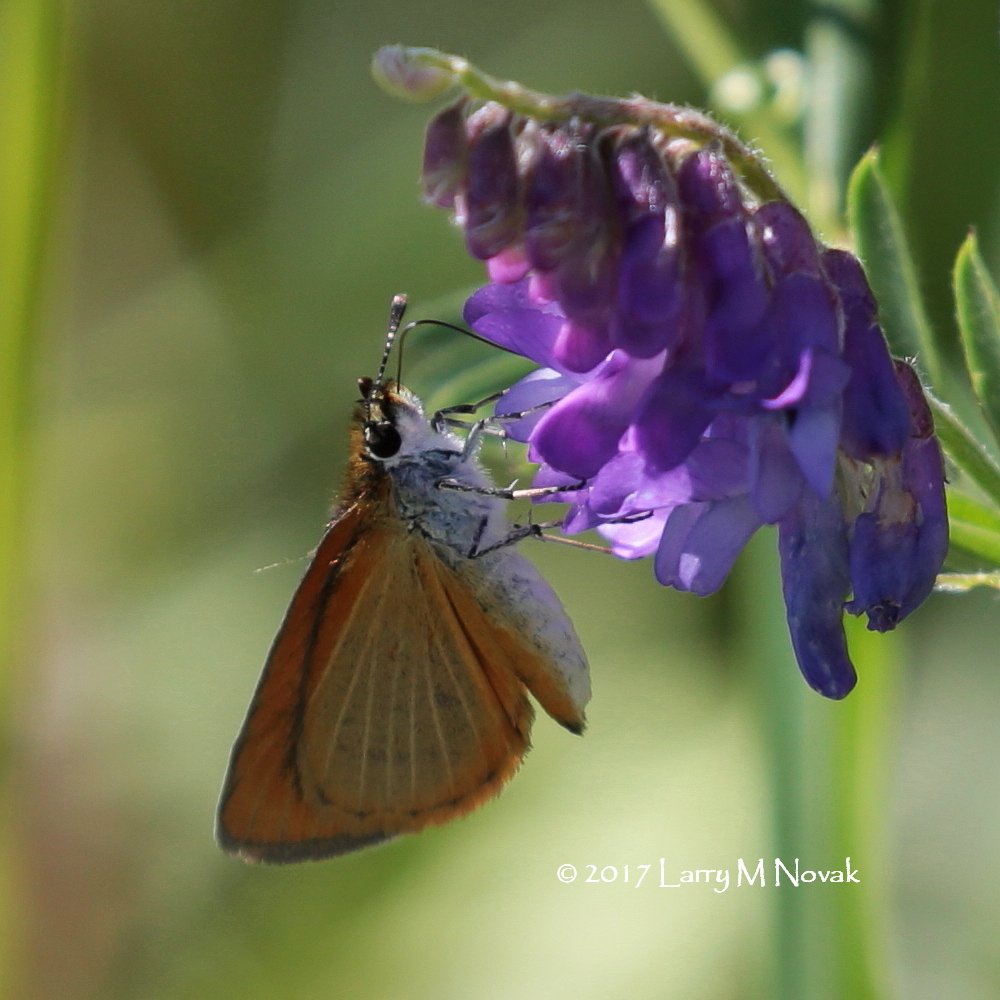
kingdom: Animalia
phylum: Arthropoda
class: Insecta
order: Lepidoptera
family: Hesperiidae
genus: Ancyloxypha
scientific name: Ancyloxypha numitor
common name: Least Skipper
